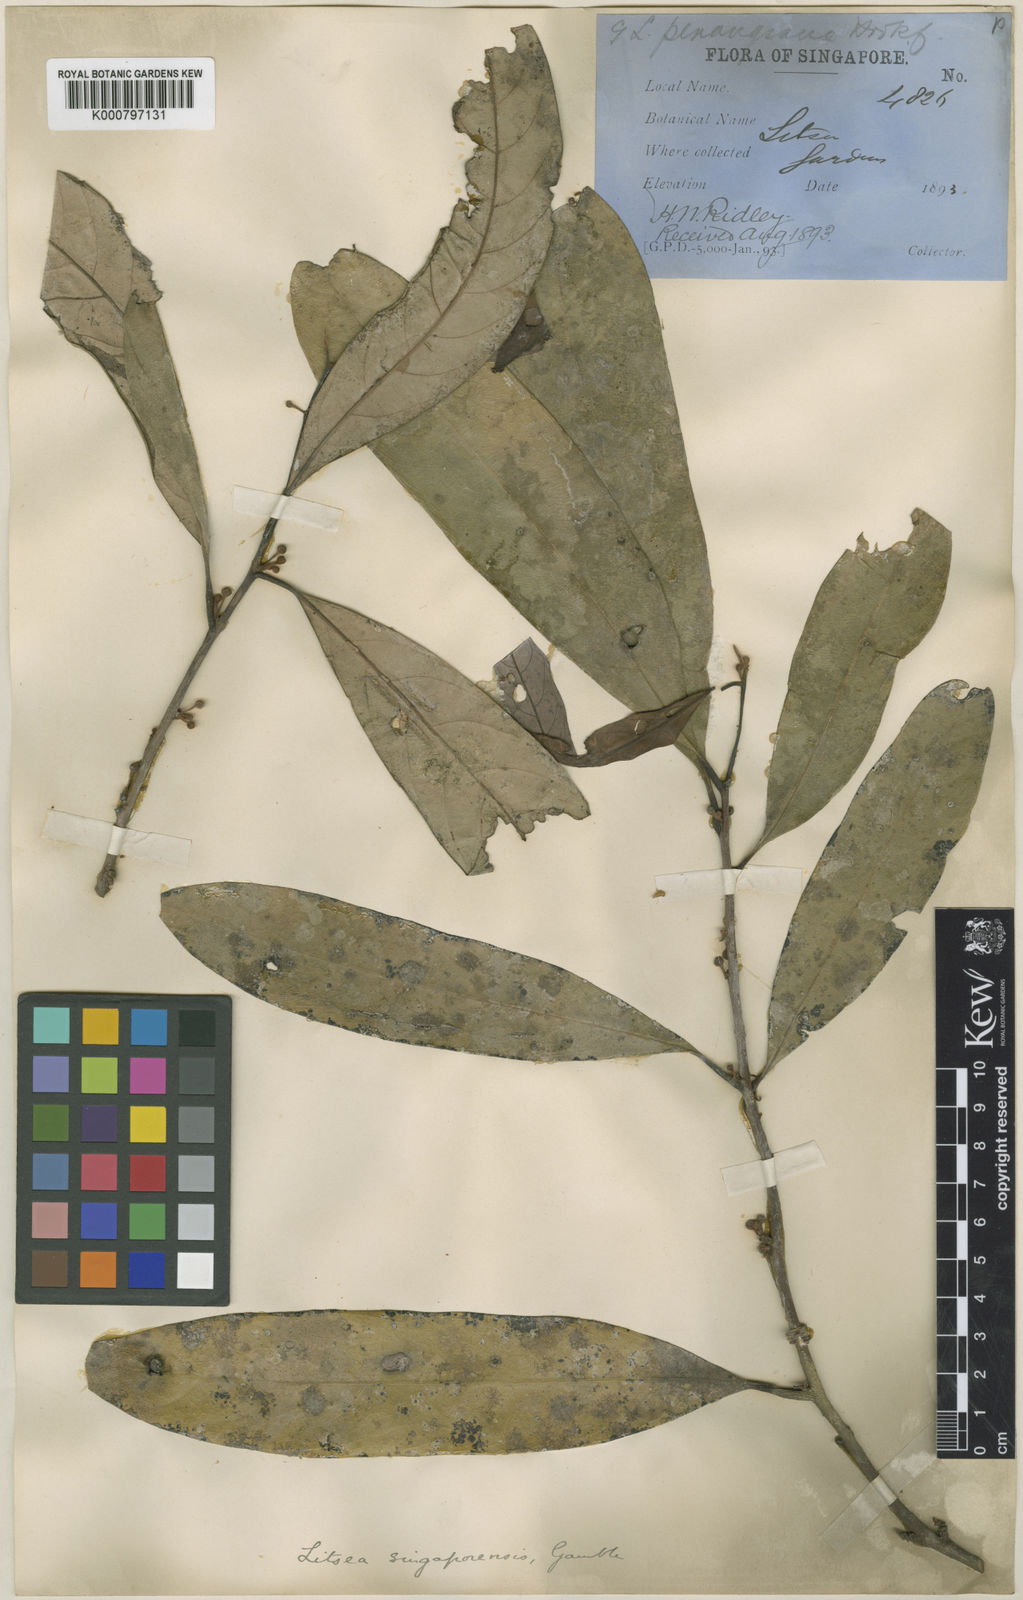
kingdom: Plantae
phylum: Tracheophyta
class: Magnoliopsida
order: Laurales
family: Lauraceae
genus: Litsea
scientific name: Litsea accedens
